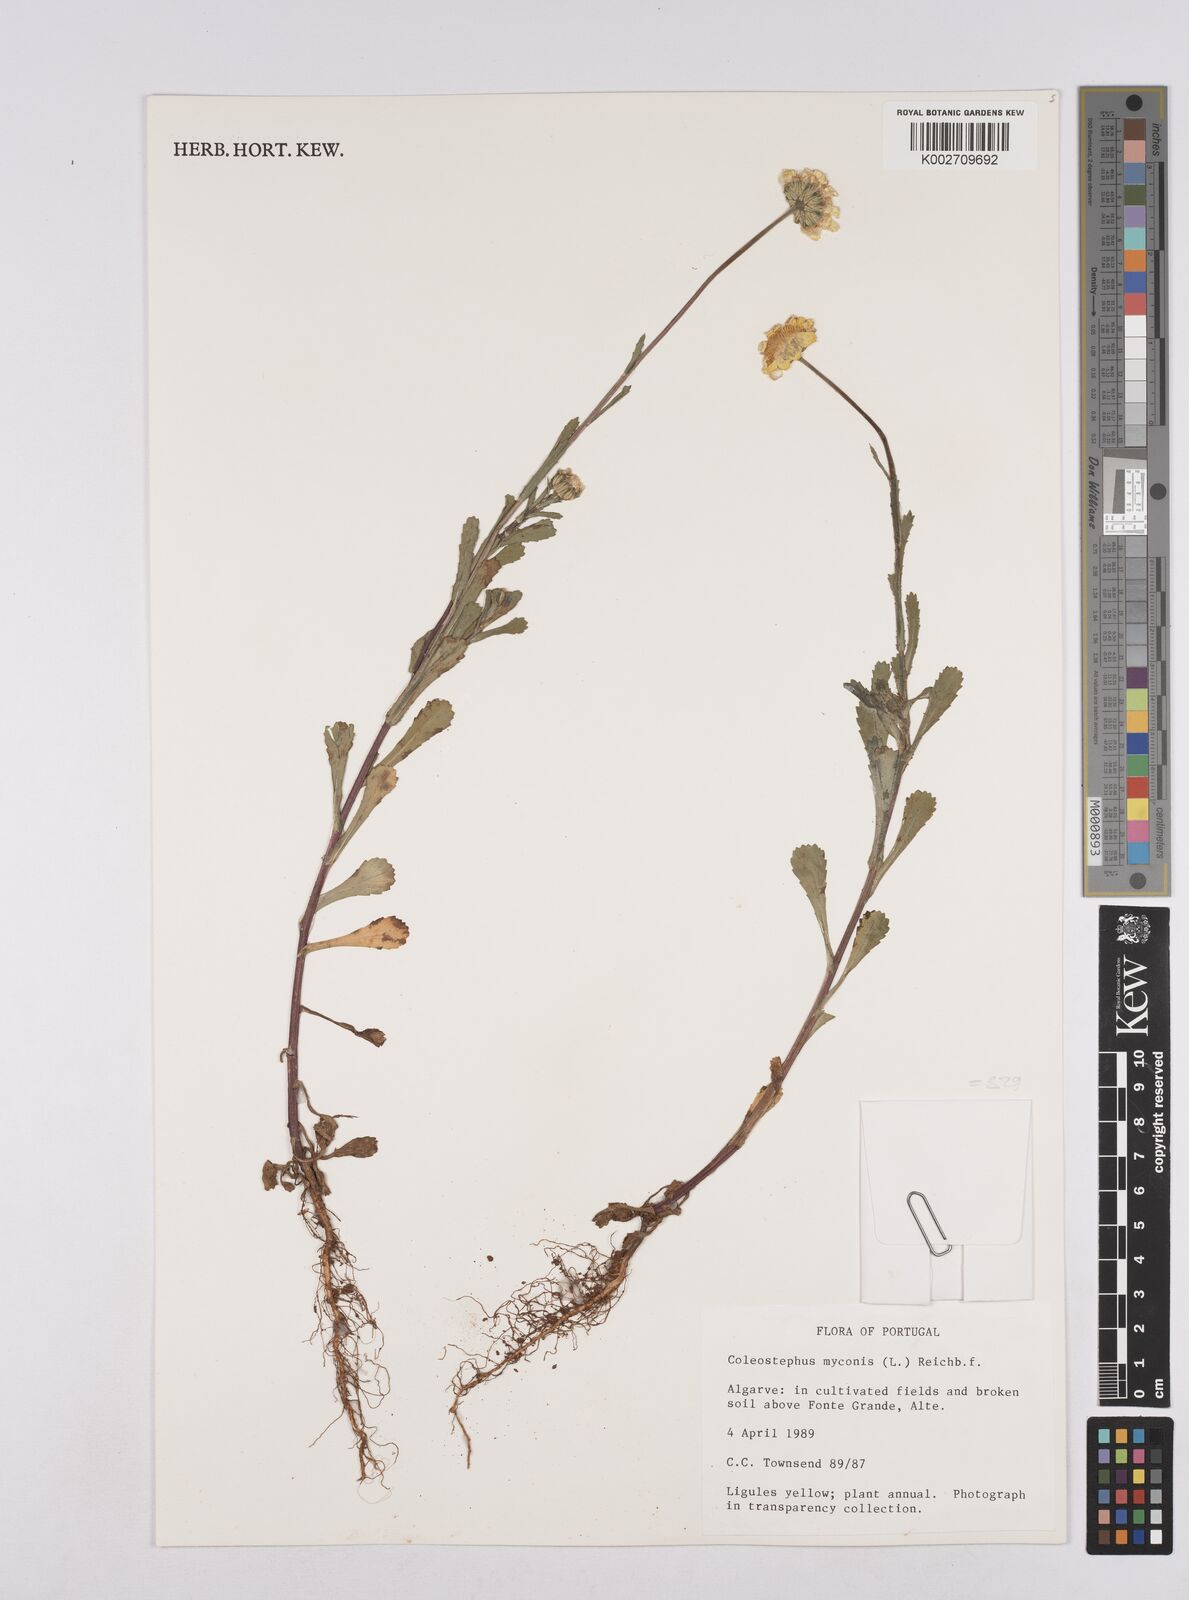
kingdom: Plantae
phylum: Tracheophyta
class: Magnoliopsida
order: Asterales
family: Asteraceae
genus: Coleostephus
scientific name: Coleostephus myconis
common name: Mediterranean marigold
